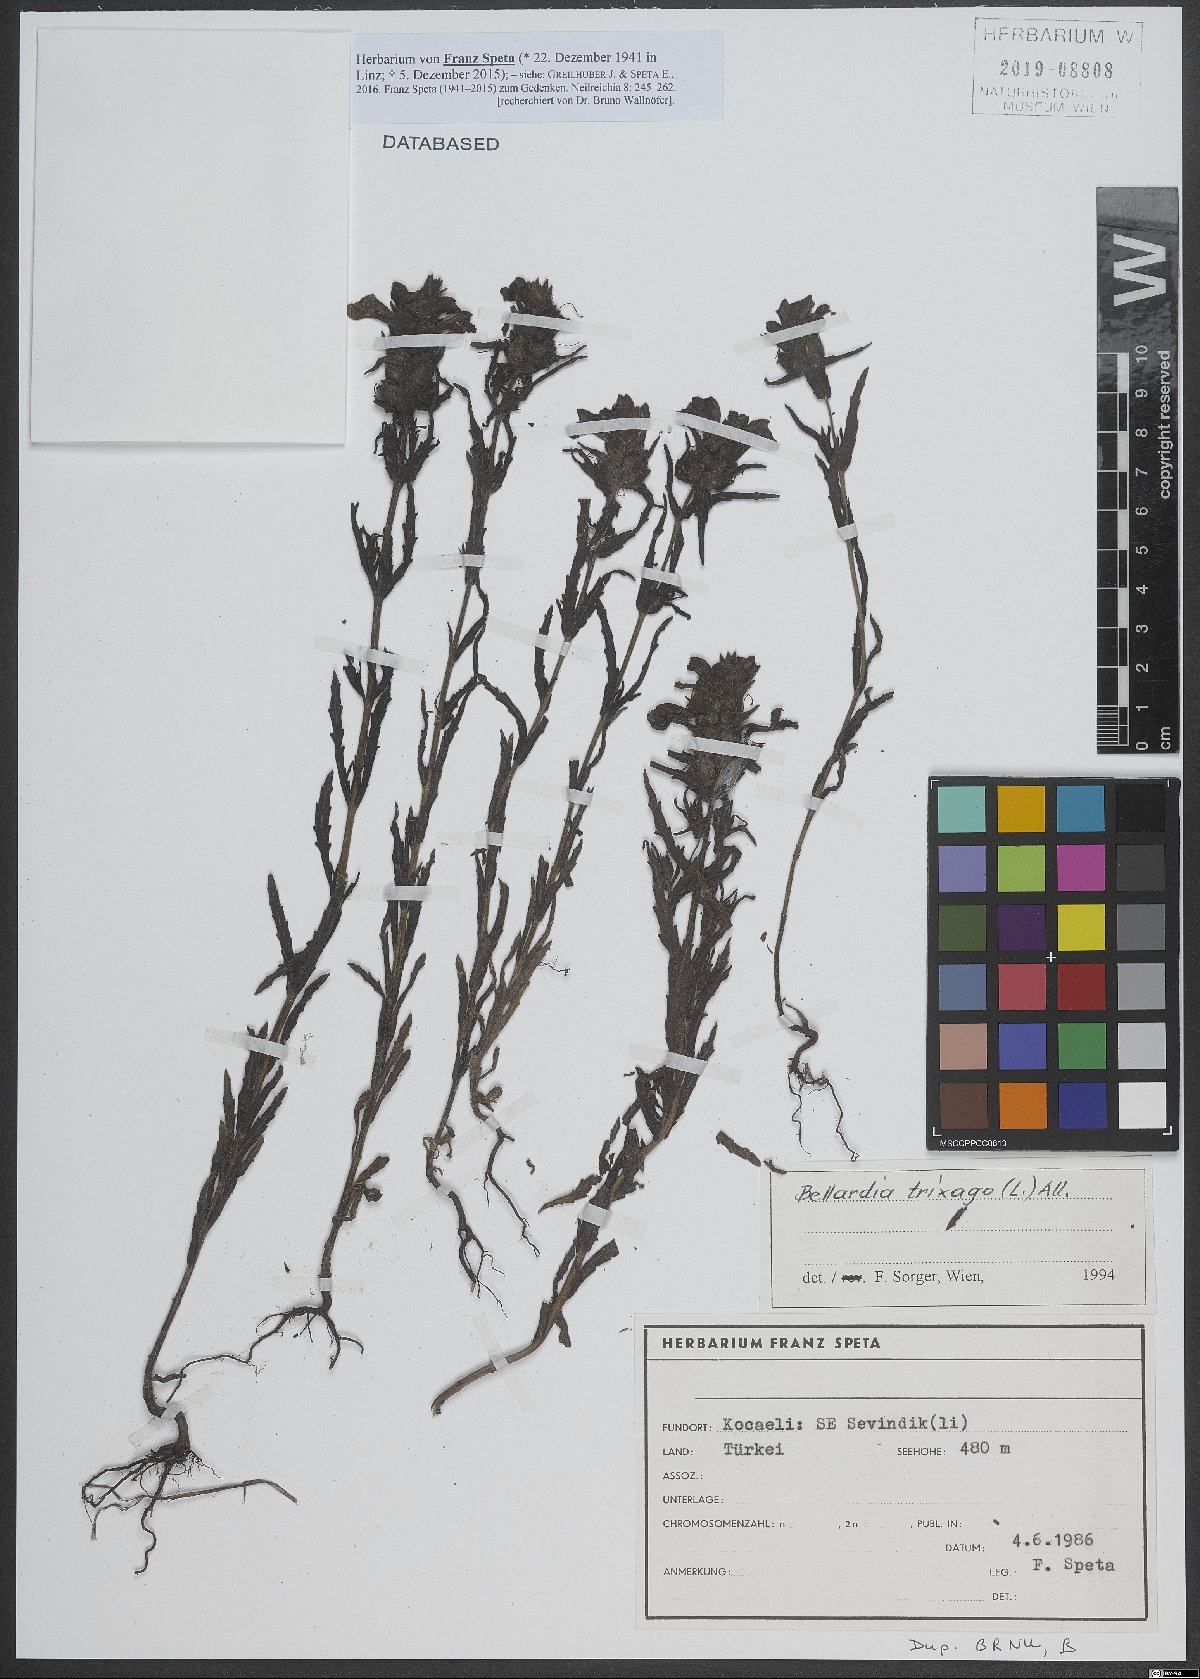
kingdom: Plantae
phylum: Tracheophyta
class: Magnoliopsida
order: Lamiales
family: Orobanchaceae
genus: Bellardia
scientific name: Bellardia trixago
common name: Mediterranean lineseed
